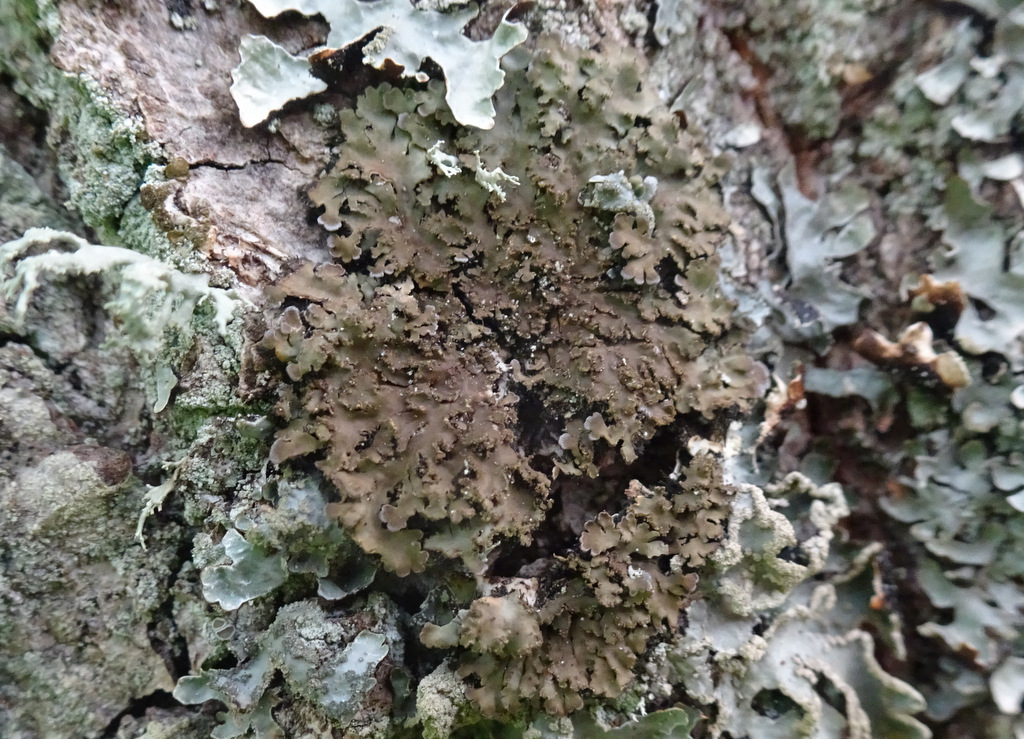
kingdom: Fungi
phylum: Ascomycota
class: Lecanoromycetes
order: Caliciales
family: Physciaceae
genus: Physconia
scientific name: Physconia perisidiosa
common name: liden dugrosetlav
